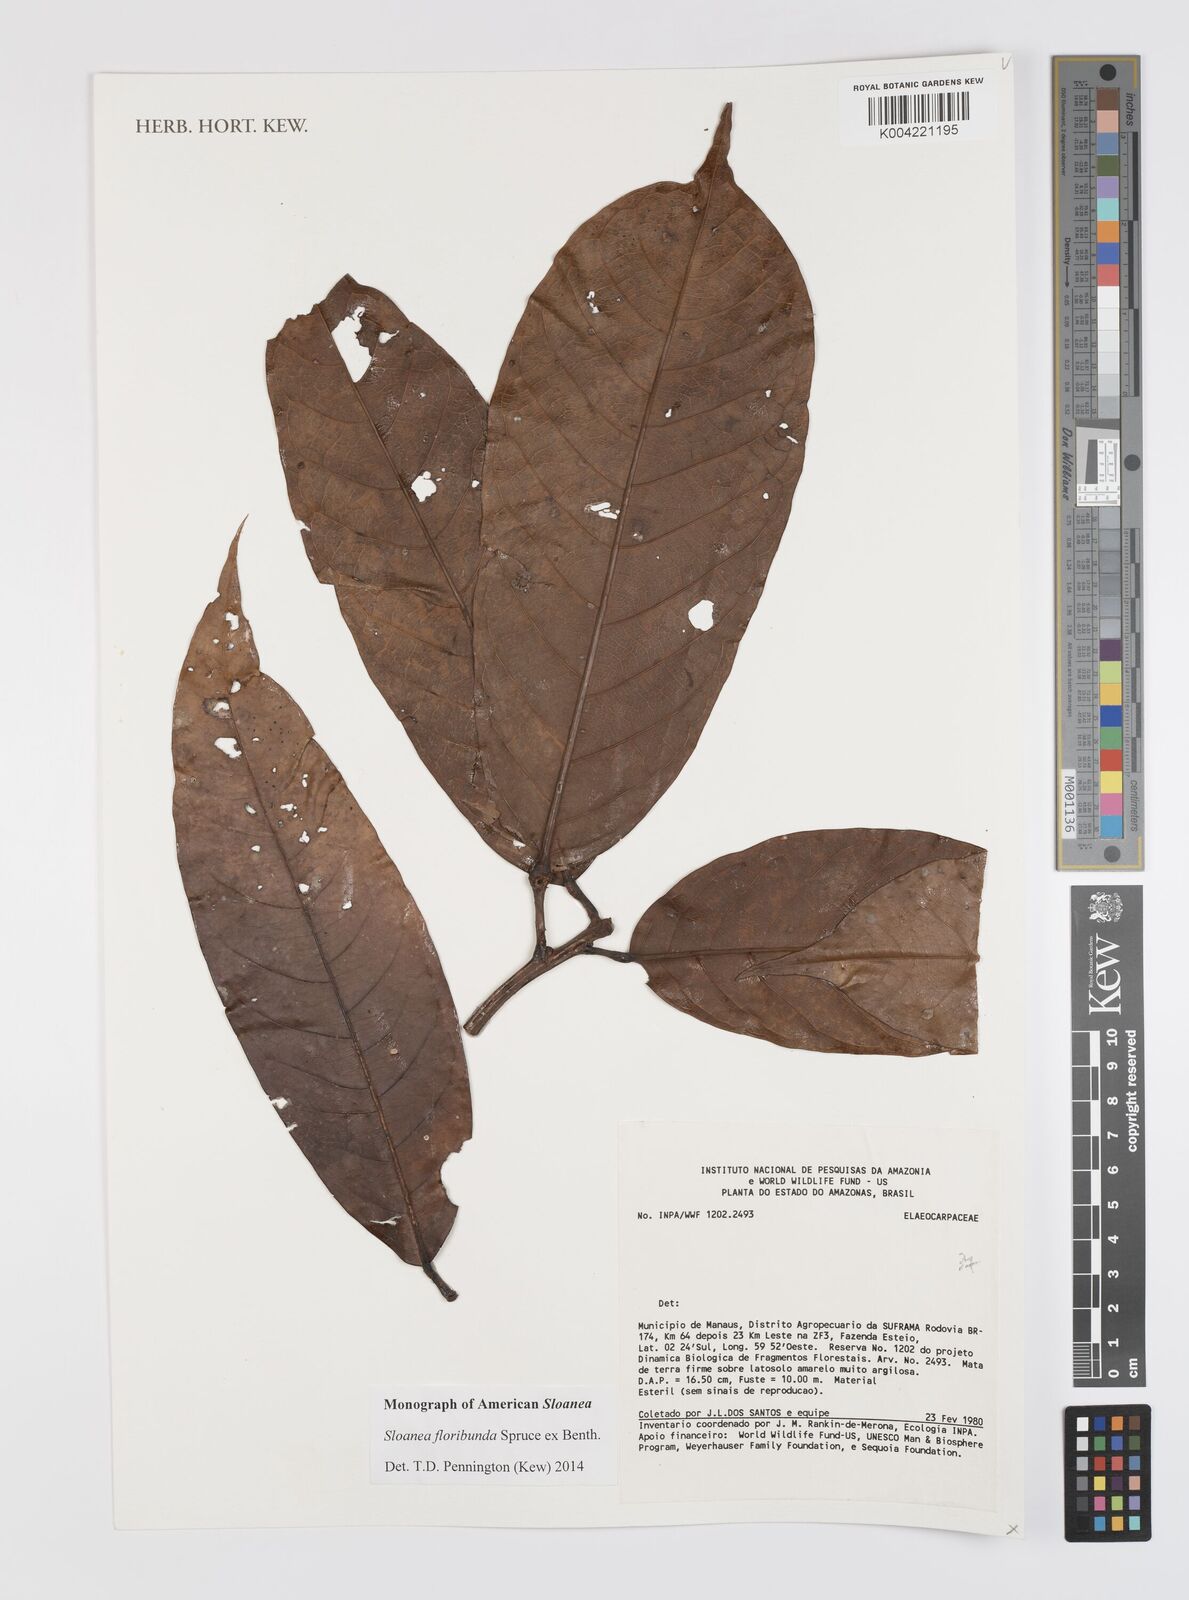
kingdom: Plantae
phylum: Tracheophyta
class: Magnoliopsida
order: Oxalidales
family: Elaeocarpaceae
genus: Sloanea
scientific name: Sloanea floribunda
